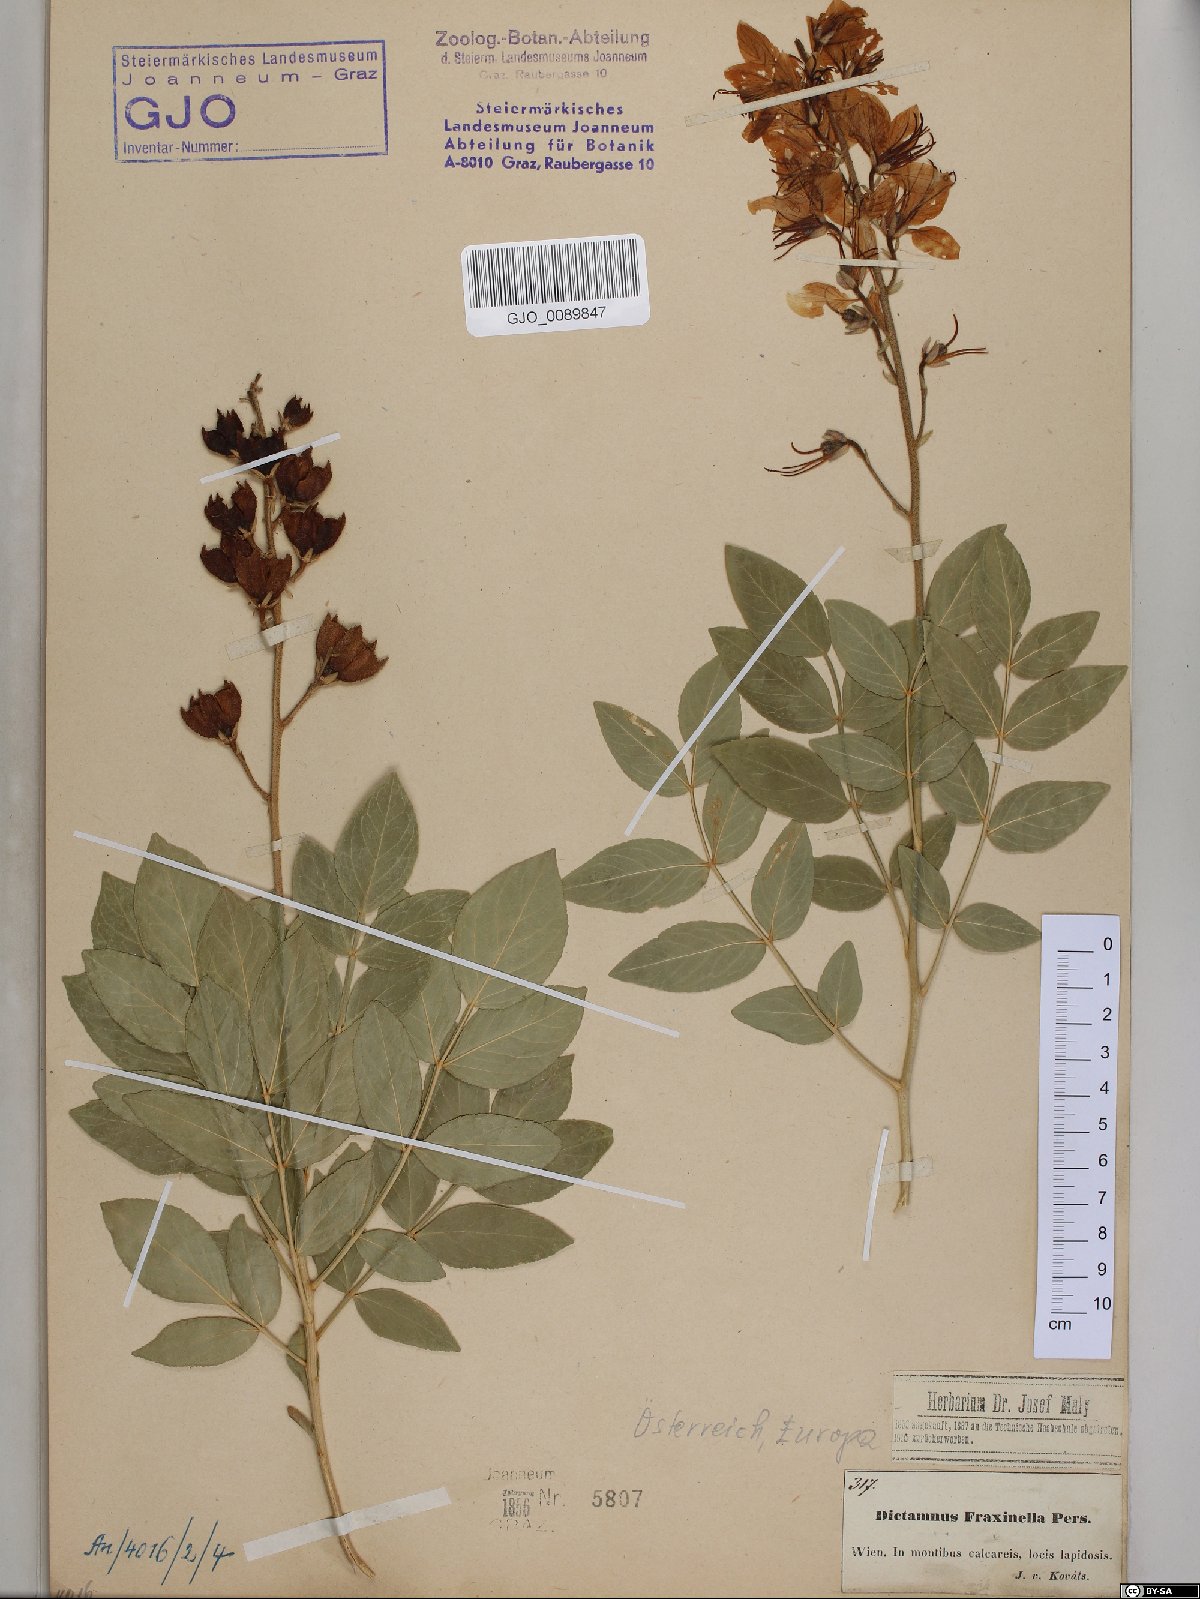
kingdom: Plantae
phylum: Tracheophyta
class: Magnoliopsida
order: Sapindales
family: Rutaceae
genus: Dictamnus
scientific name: Dictamnus albus
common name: Gasplant
